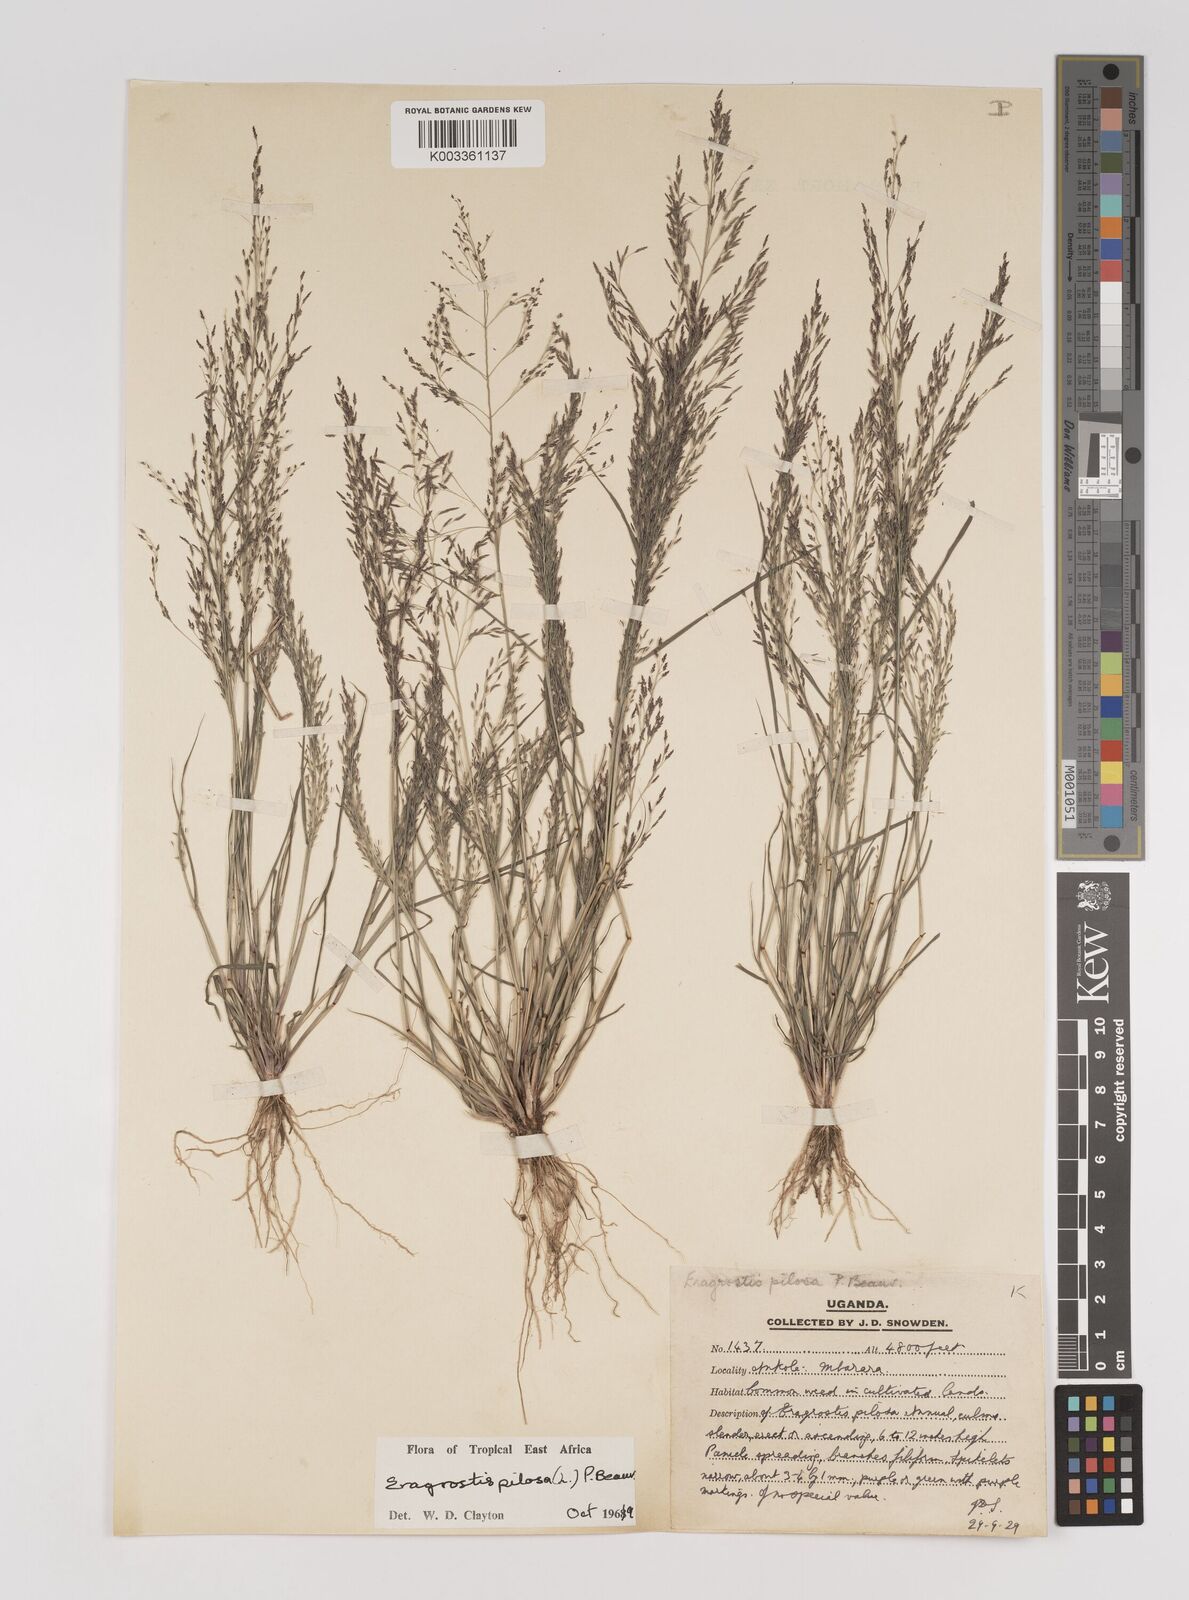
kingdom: Plantae
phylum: Tracheophyta
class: Liliopsida
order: Poales
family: Poaceae
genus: Eragrostis
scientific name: Eragrostis pilosa
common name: Indian lovegrass
